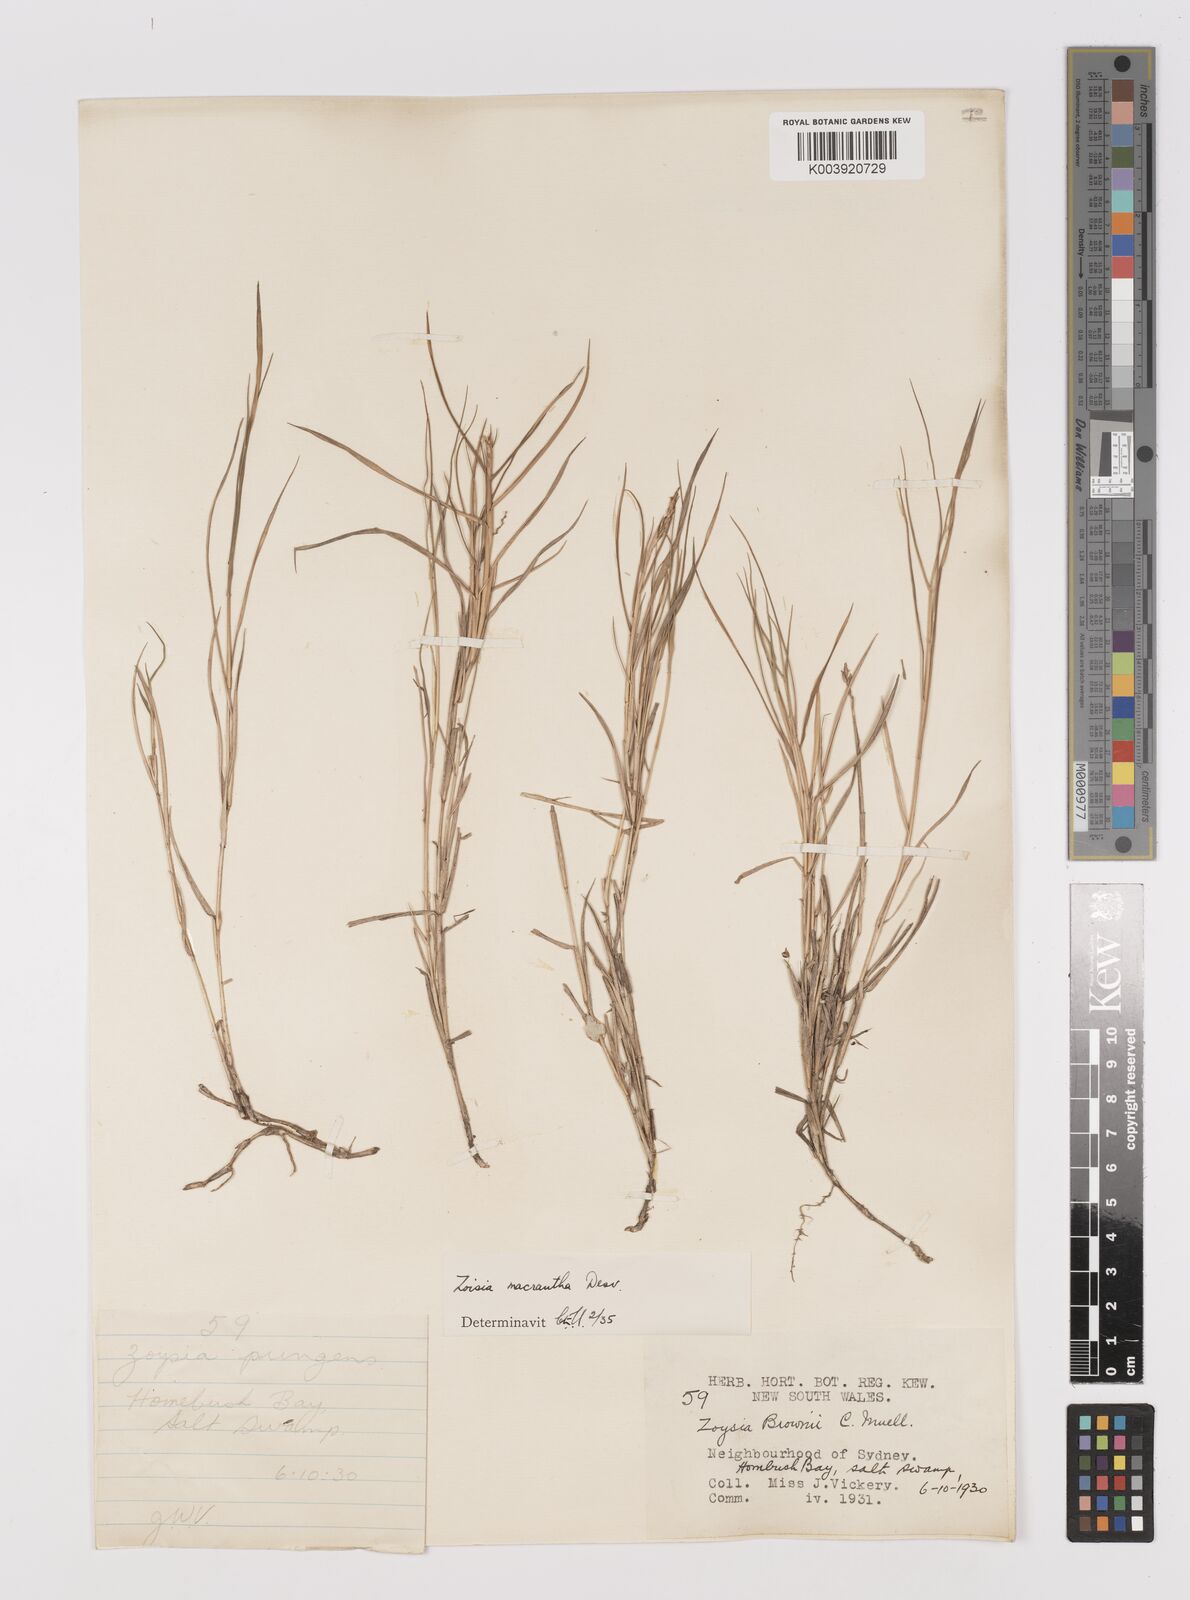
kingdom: Plantae
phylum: Tracheophyta
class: Liliopsida
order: Poales
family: Poaceae
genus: Zoysia
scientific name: Zoysia macrantha
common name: Korean lawn grass
